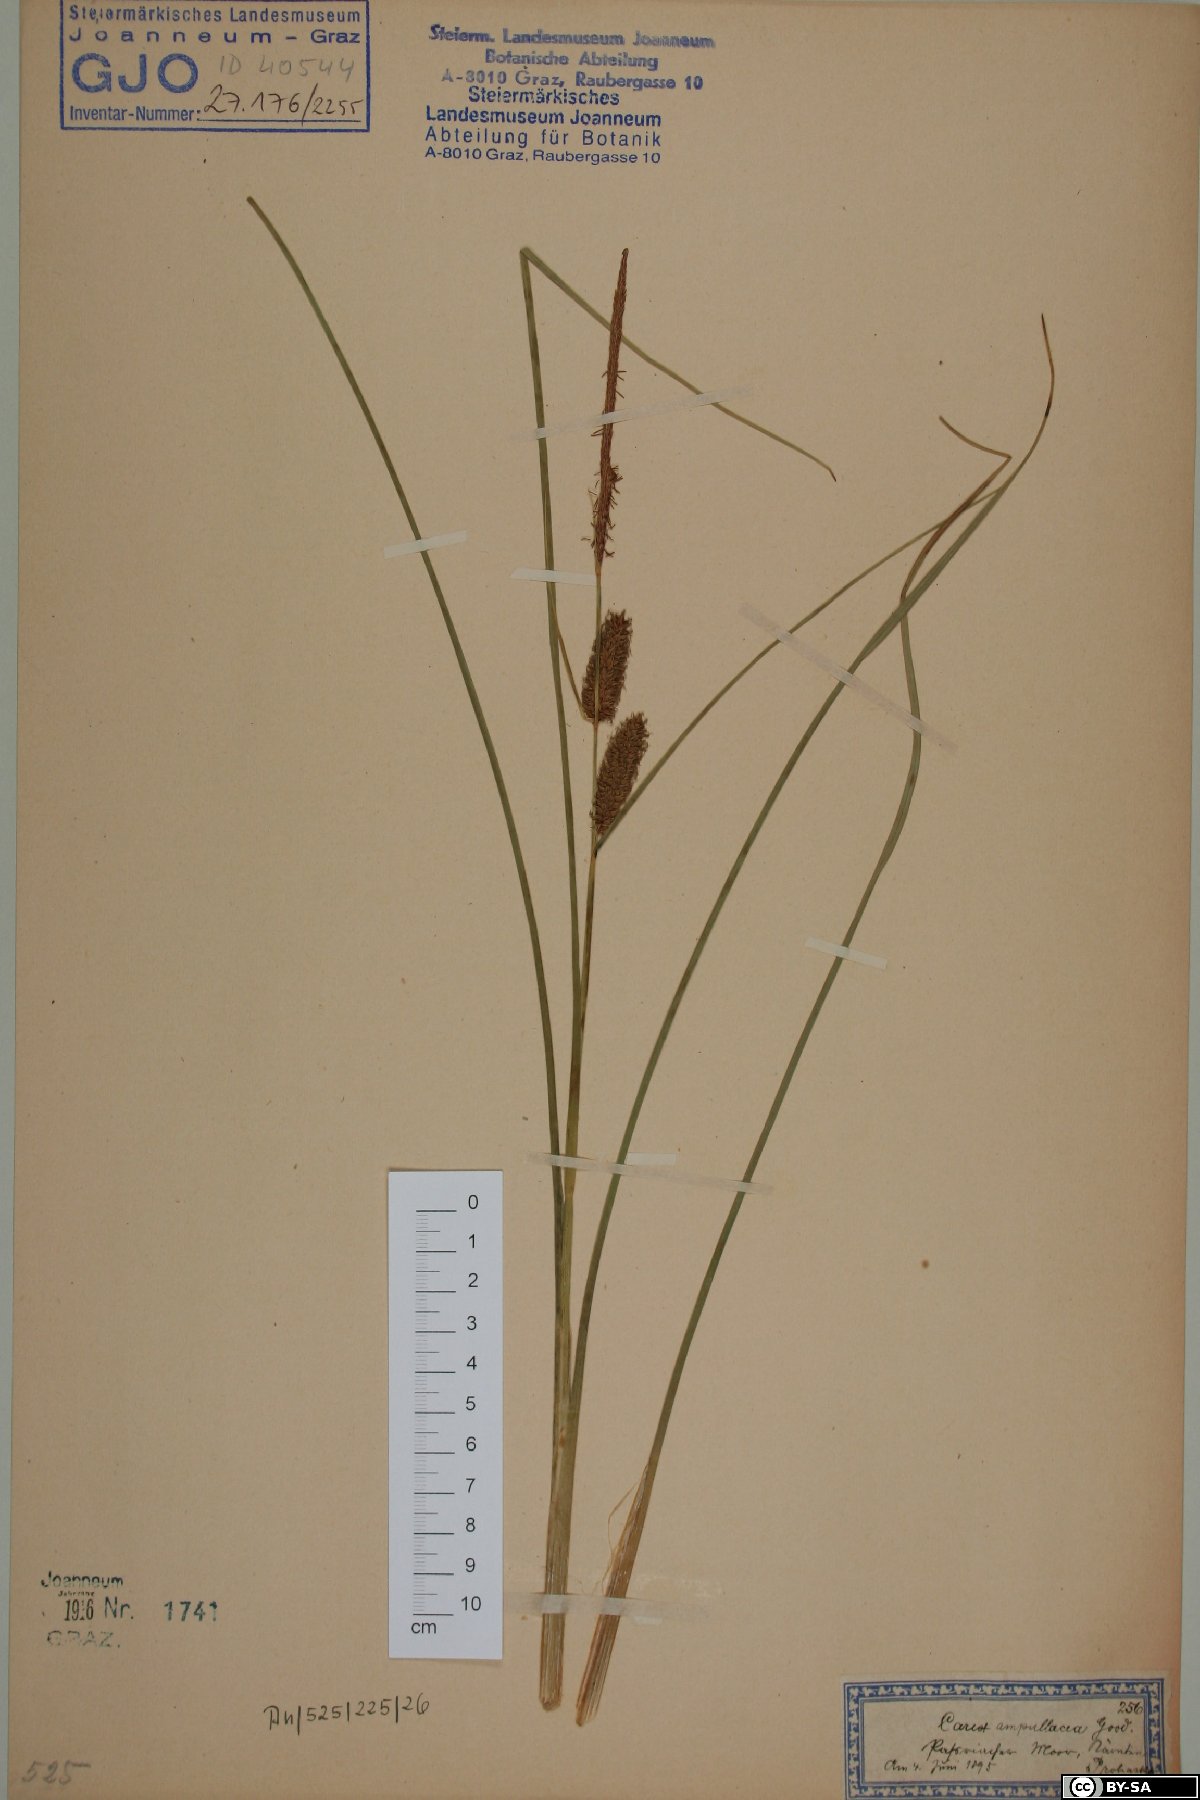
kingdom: Plantae
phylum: Tracheophyta
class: Liliopsida
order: Poales
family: Cyperaceae
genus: Carex
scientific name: Carex rostrata
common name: Bottle sedge
